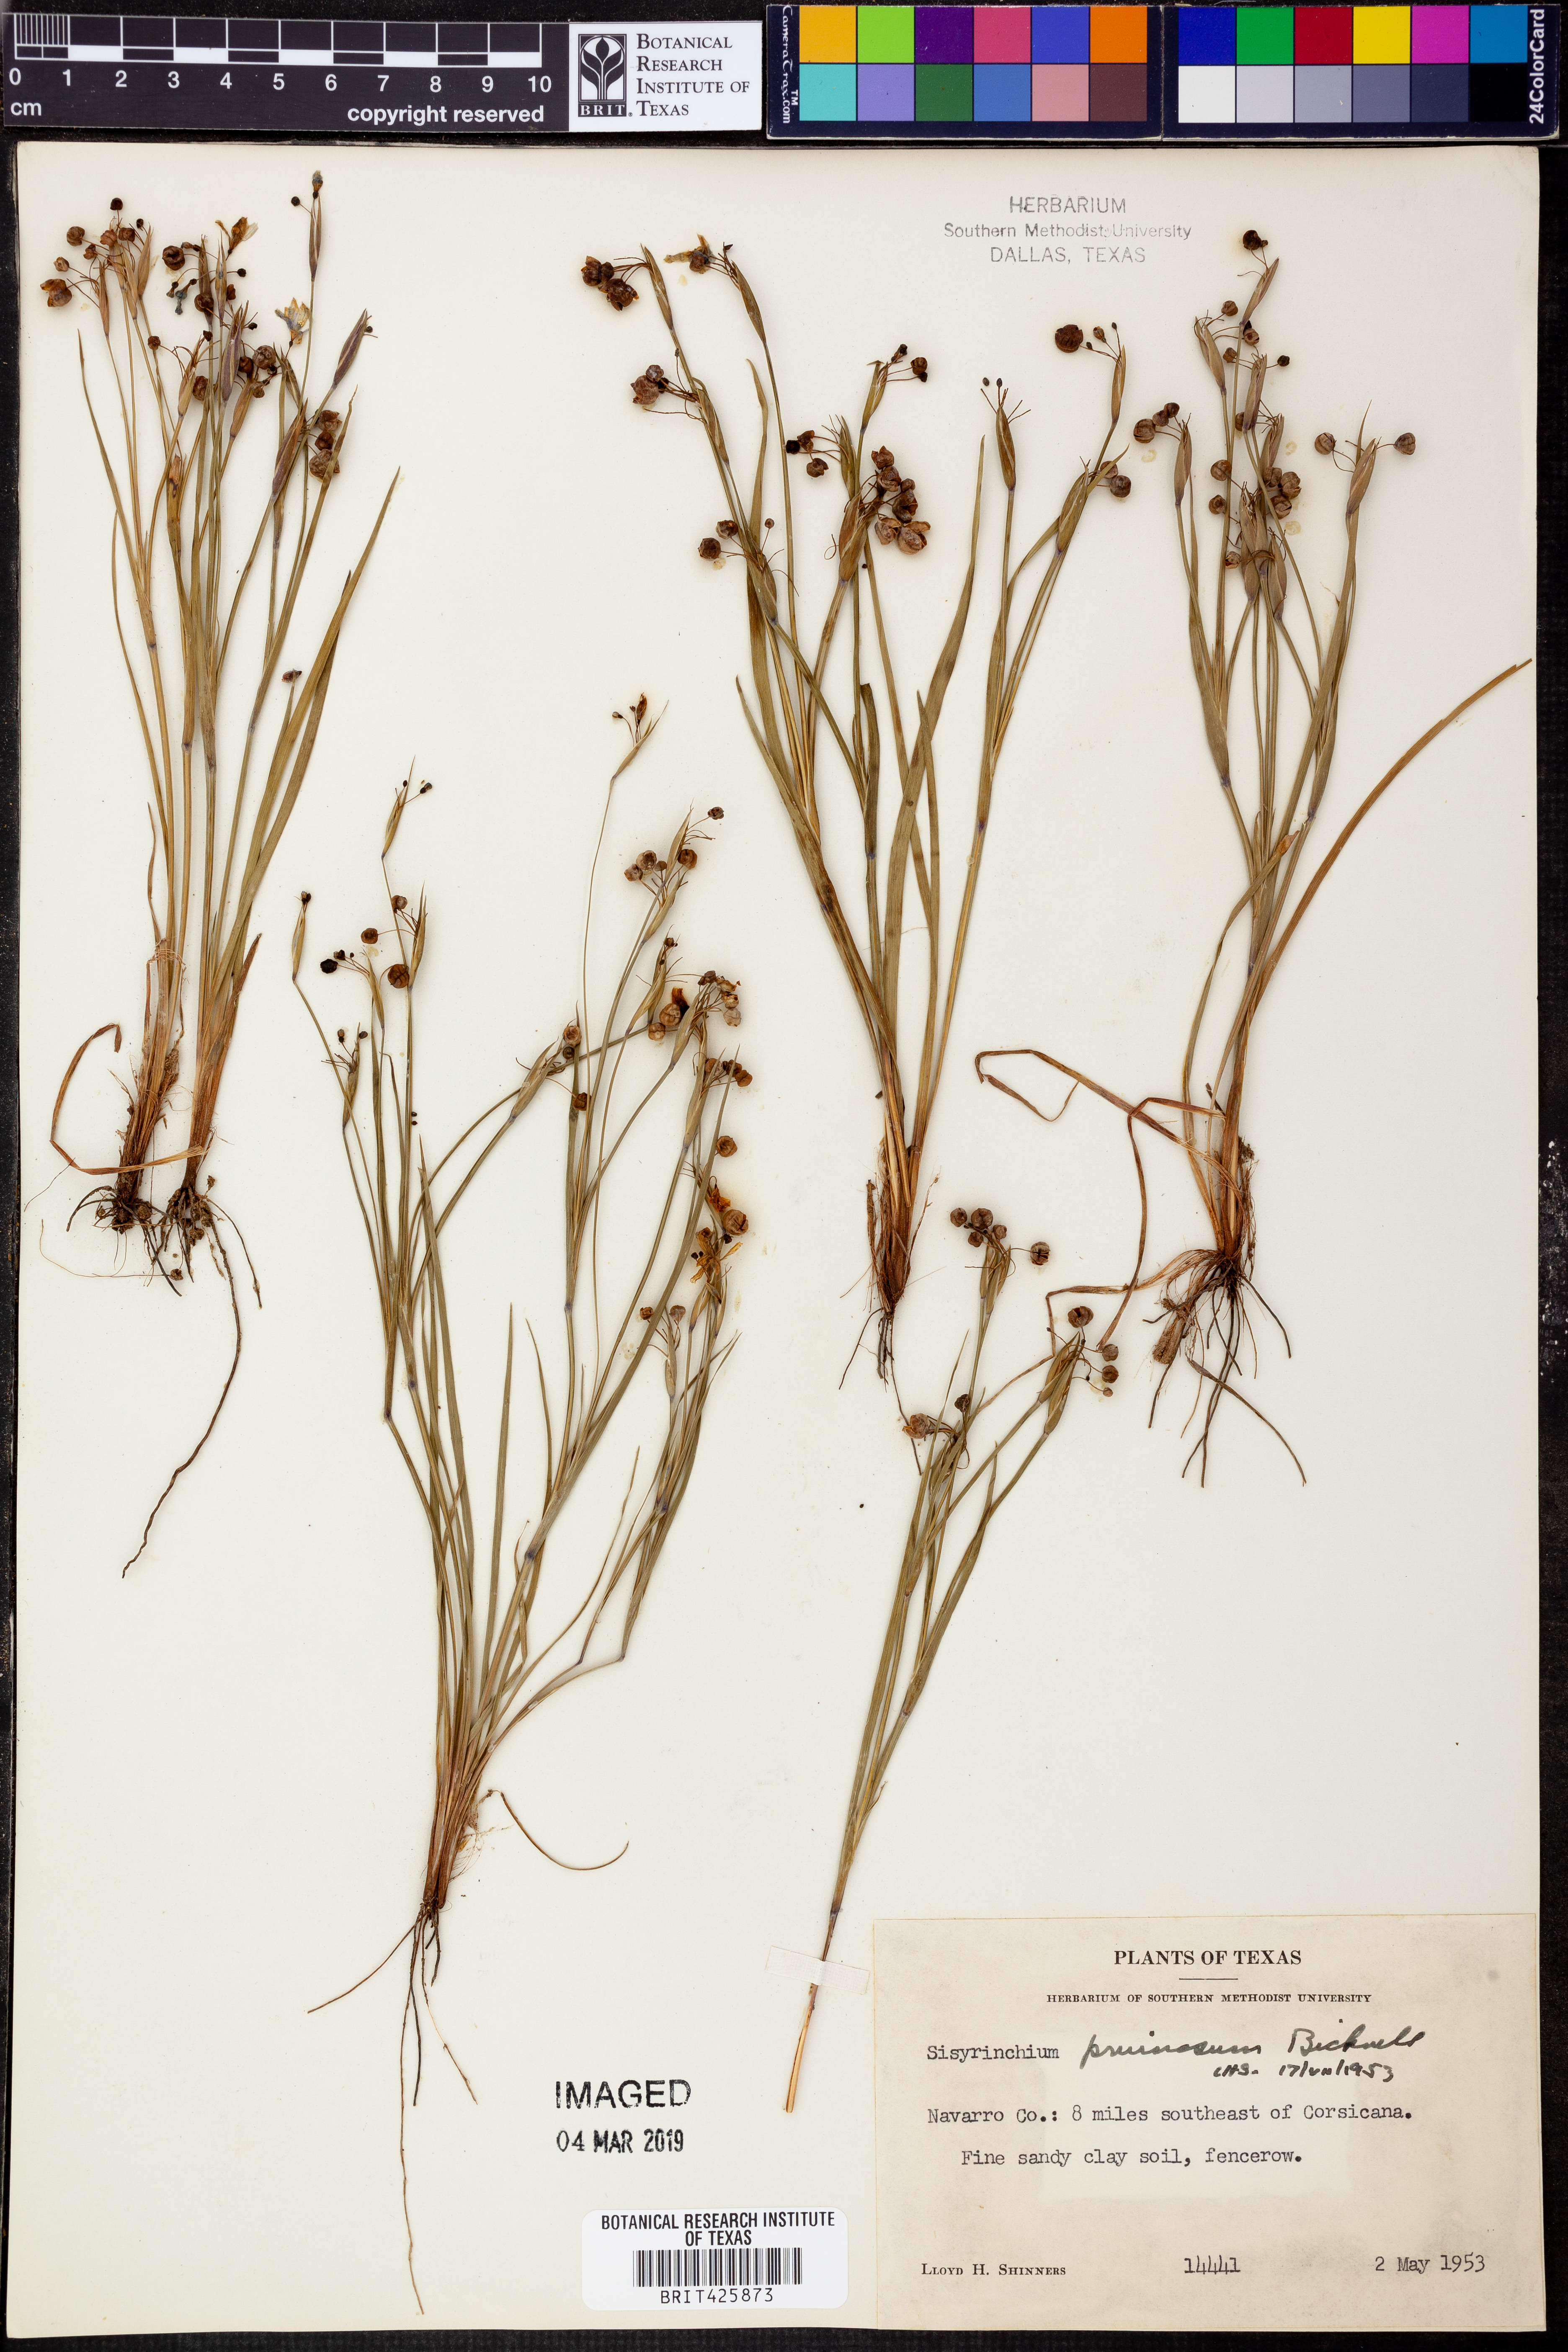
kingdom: Plantae
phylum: Tracheophyta
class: Liliopsida
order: Asparagales
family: Iridaceae
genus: Sisyrinchium
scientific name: Sisyrinchium pruinosum
